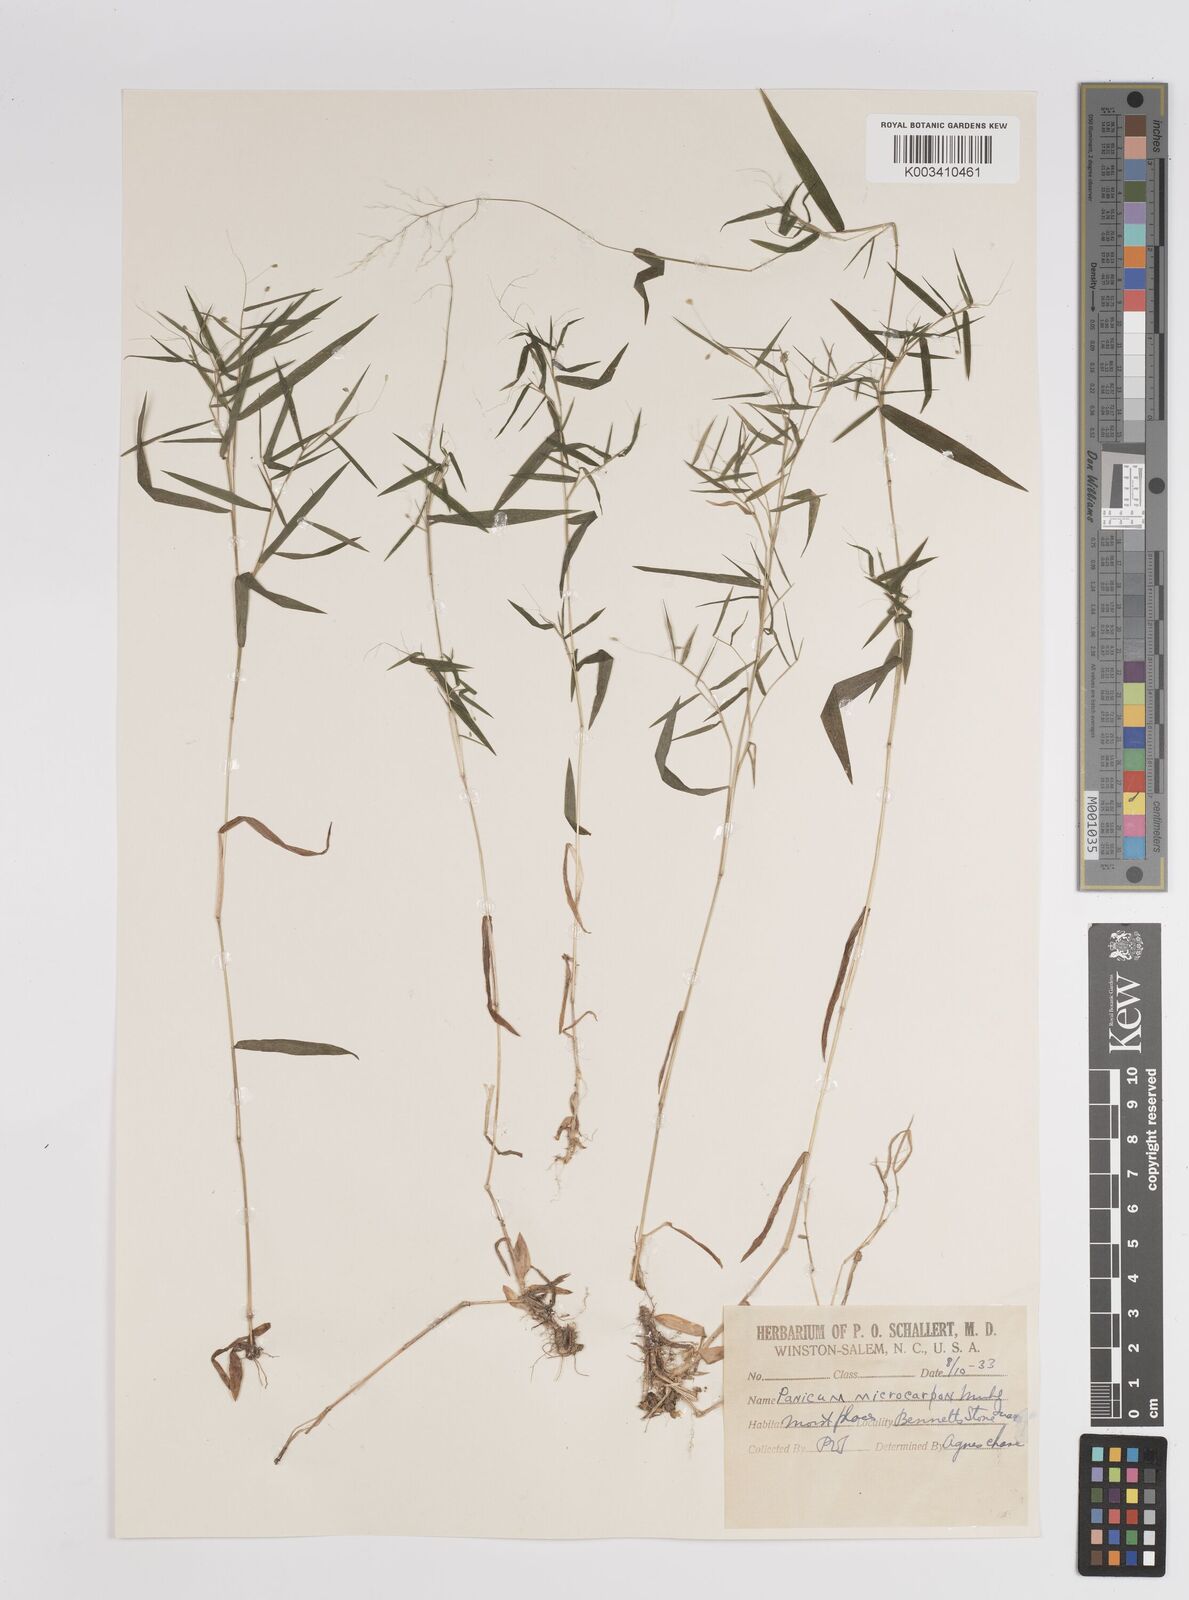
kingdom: Plantae
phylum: Tracheophyta
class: Liliopsida
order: Poales
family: Poaceae
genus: Dichanthelium
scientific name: Dichanthelium polyanthes
